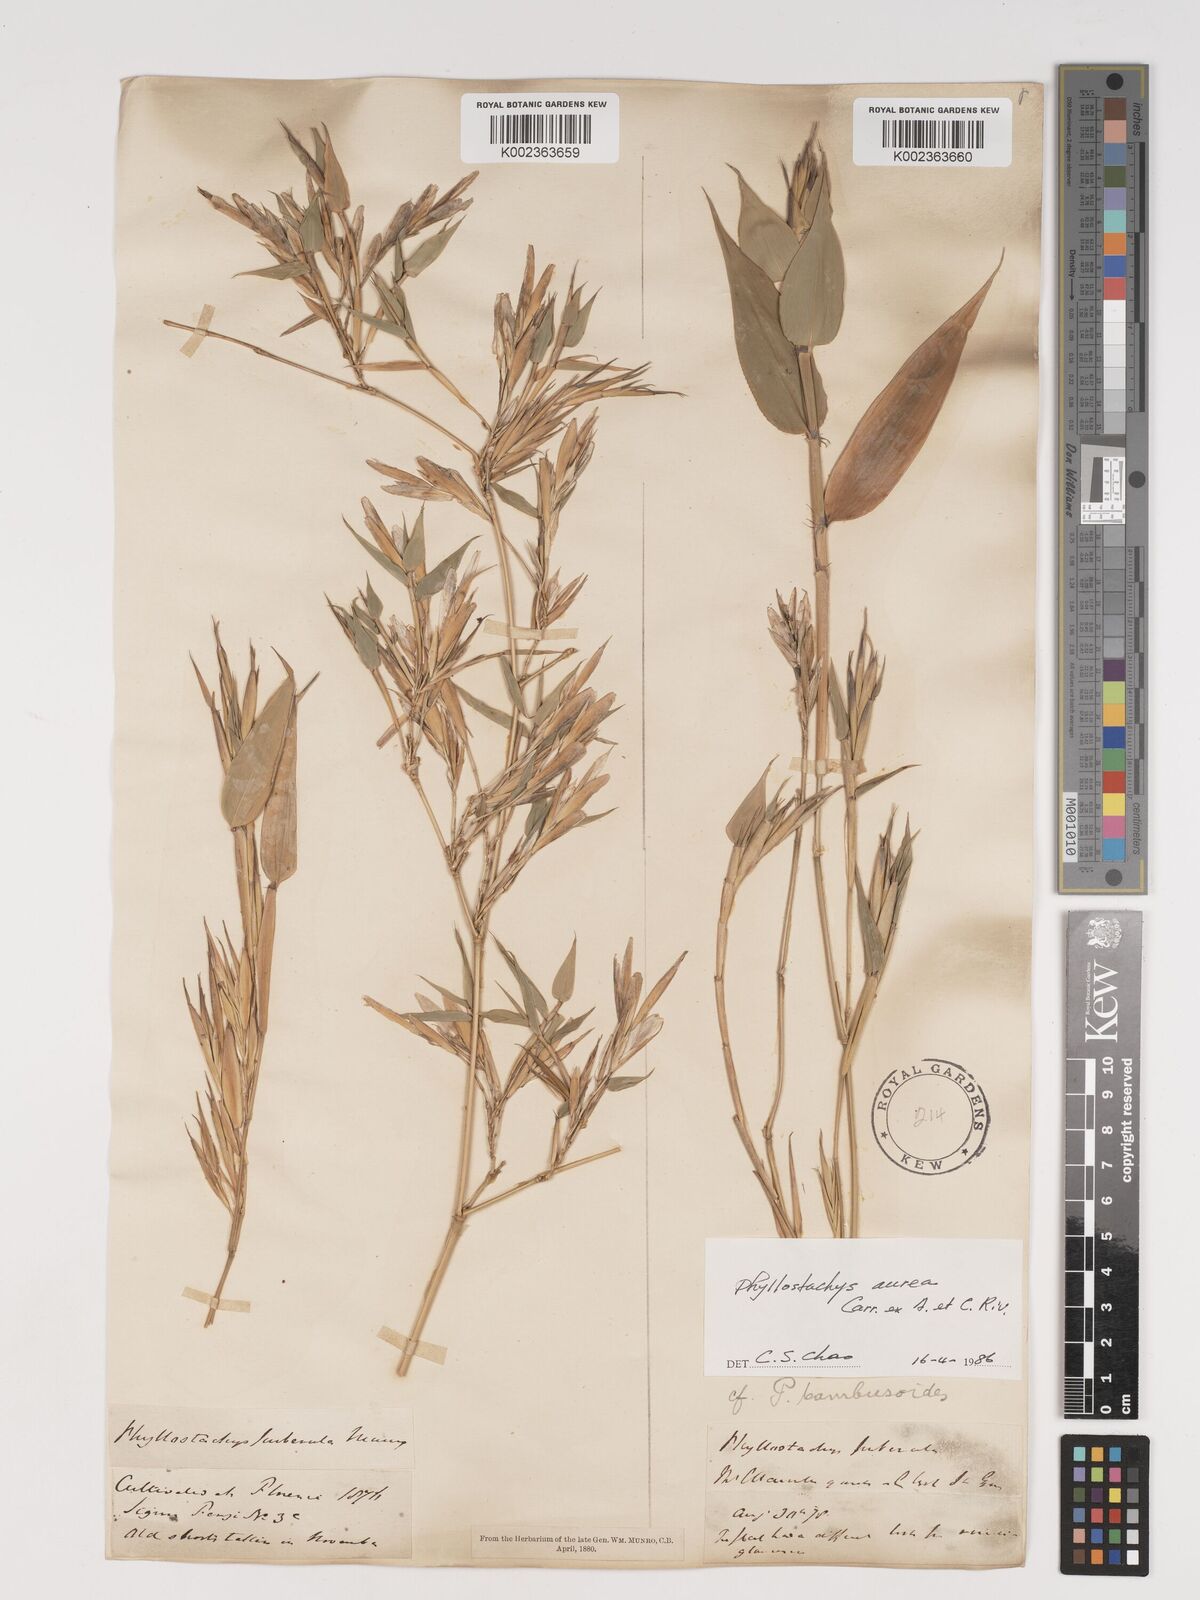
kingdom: Plantae
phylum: Tracheophyta
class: Liliopsida
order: Poales
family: Poaceae
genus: Phyllostachys
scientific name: Phyllostachys aurea
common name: Golden bamboo
